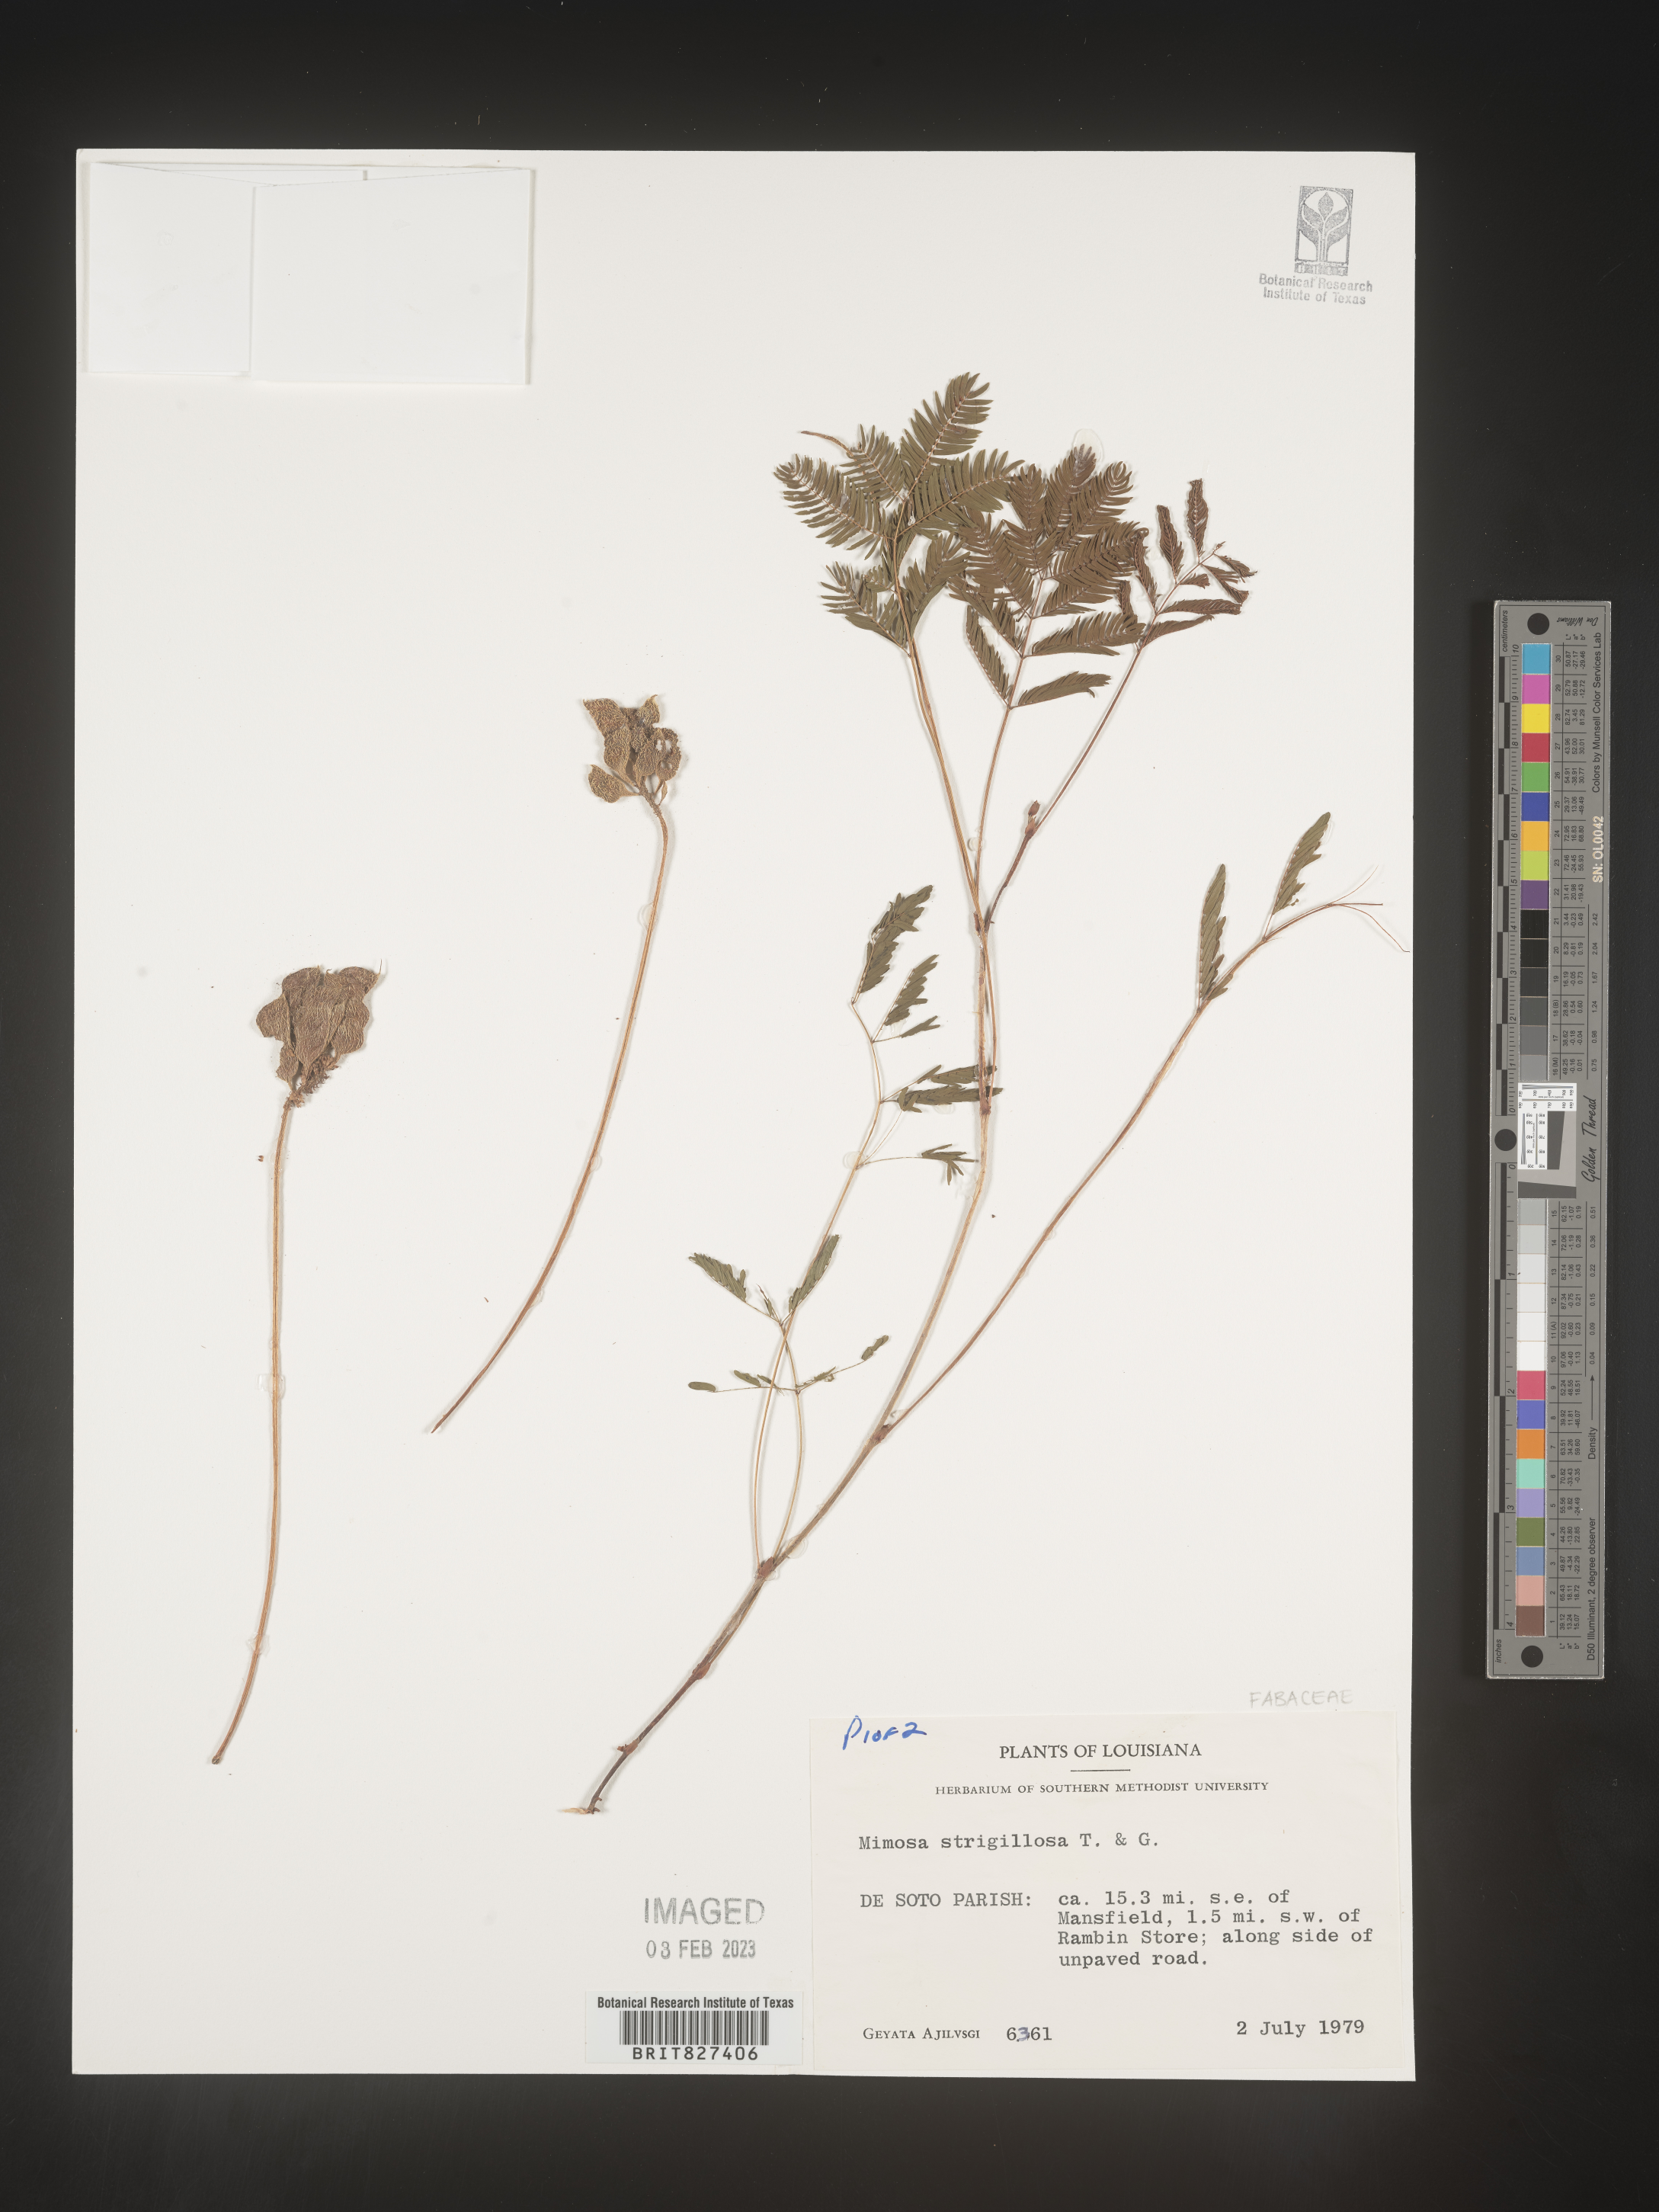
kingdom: Plantae
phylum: Tracheophyta
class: Magnoliopsida
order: Fabales
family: Fabaceae
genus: Mimosa
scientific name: Mimosa strigillosa
